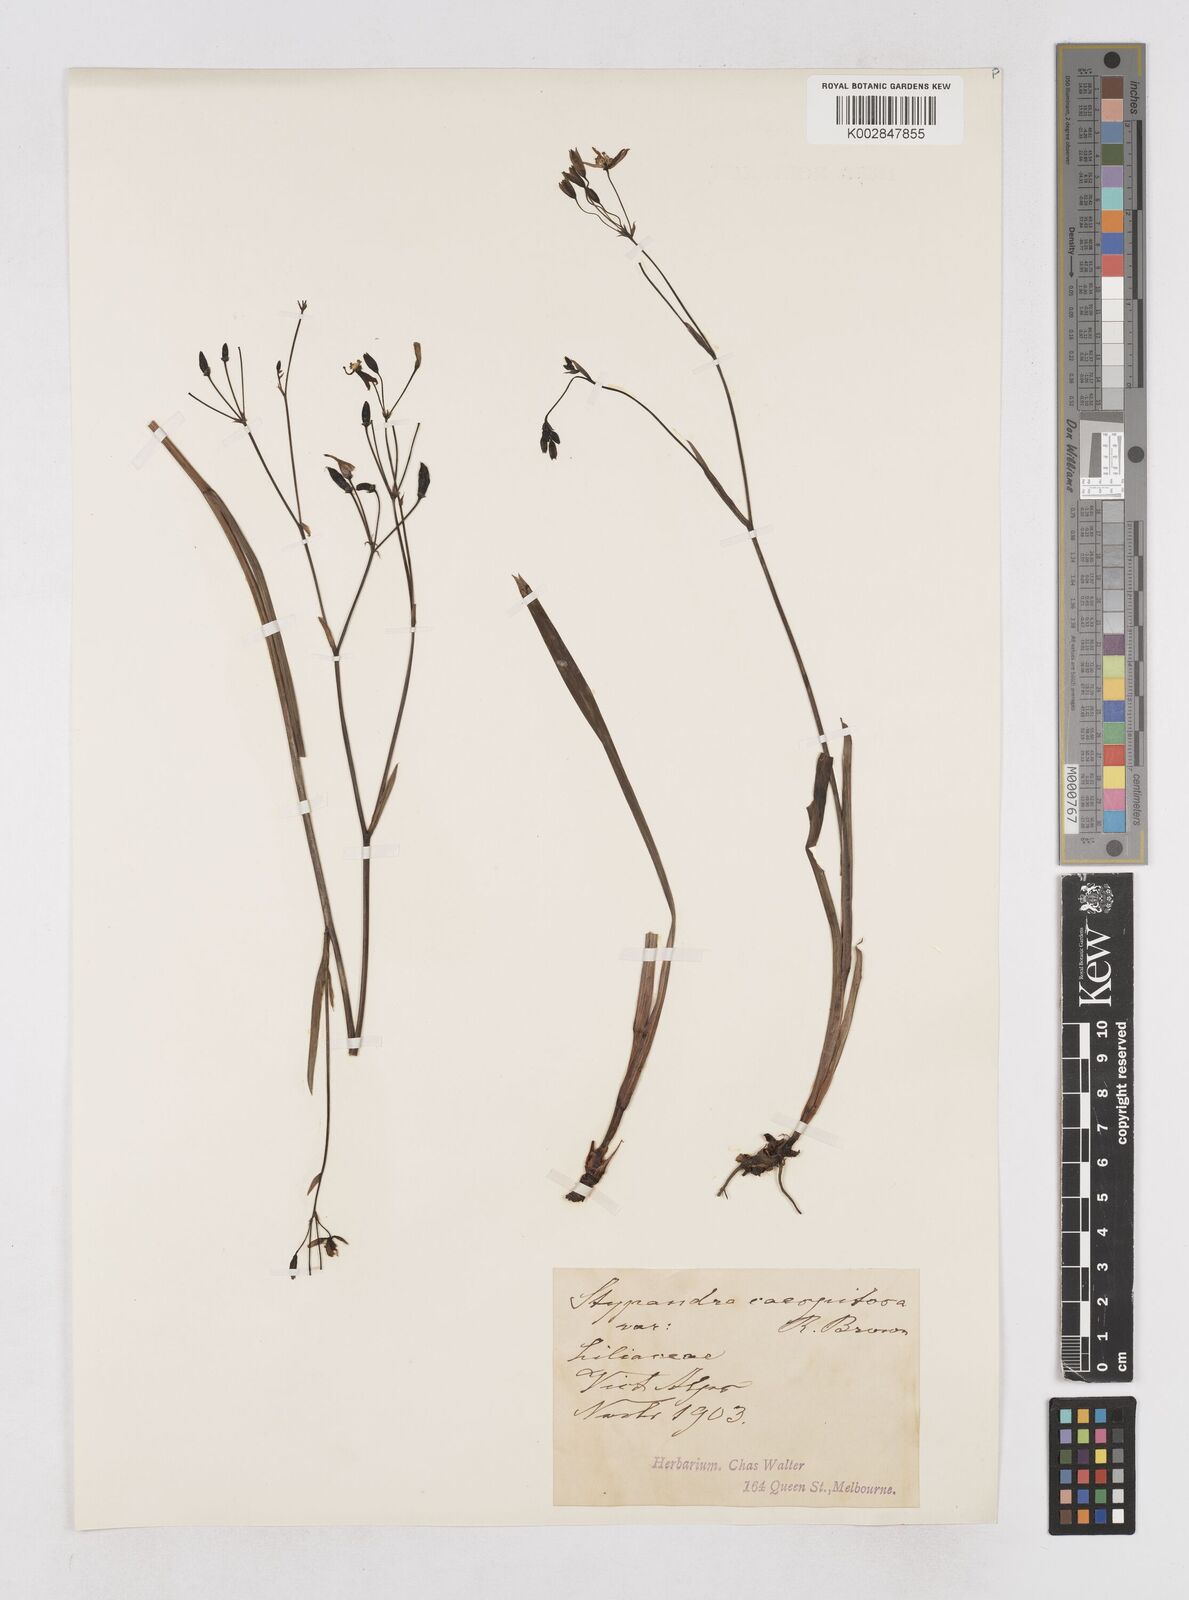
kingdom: Plantae
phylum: Tracheophyta
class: Liliopsida
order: Asparagales
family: Asphodelaceae
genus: Thelionema
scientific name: Thelionema caespitosum
